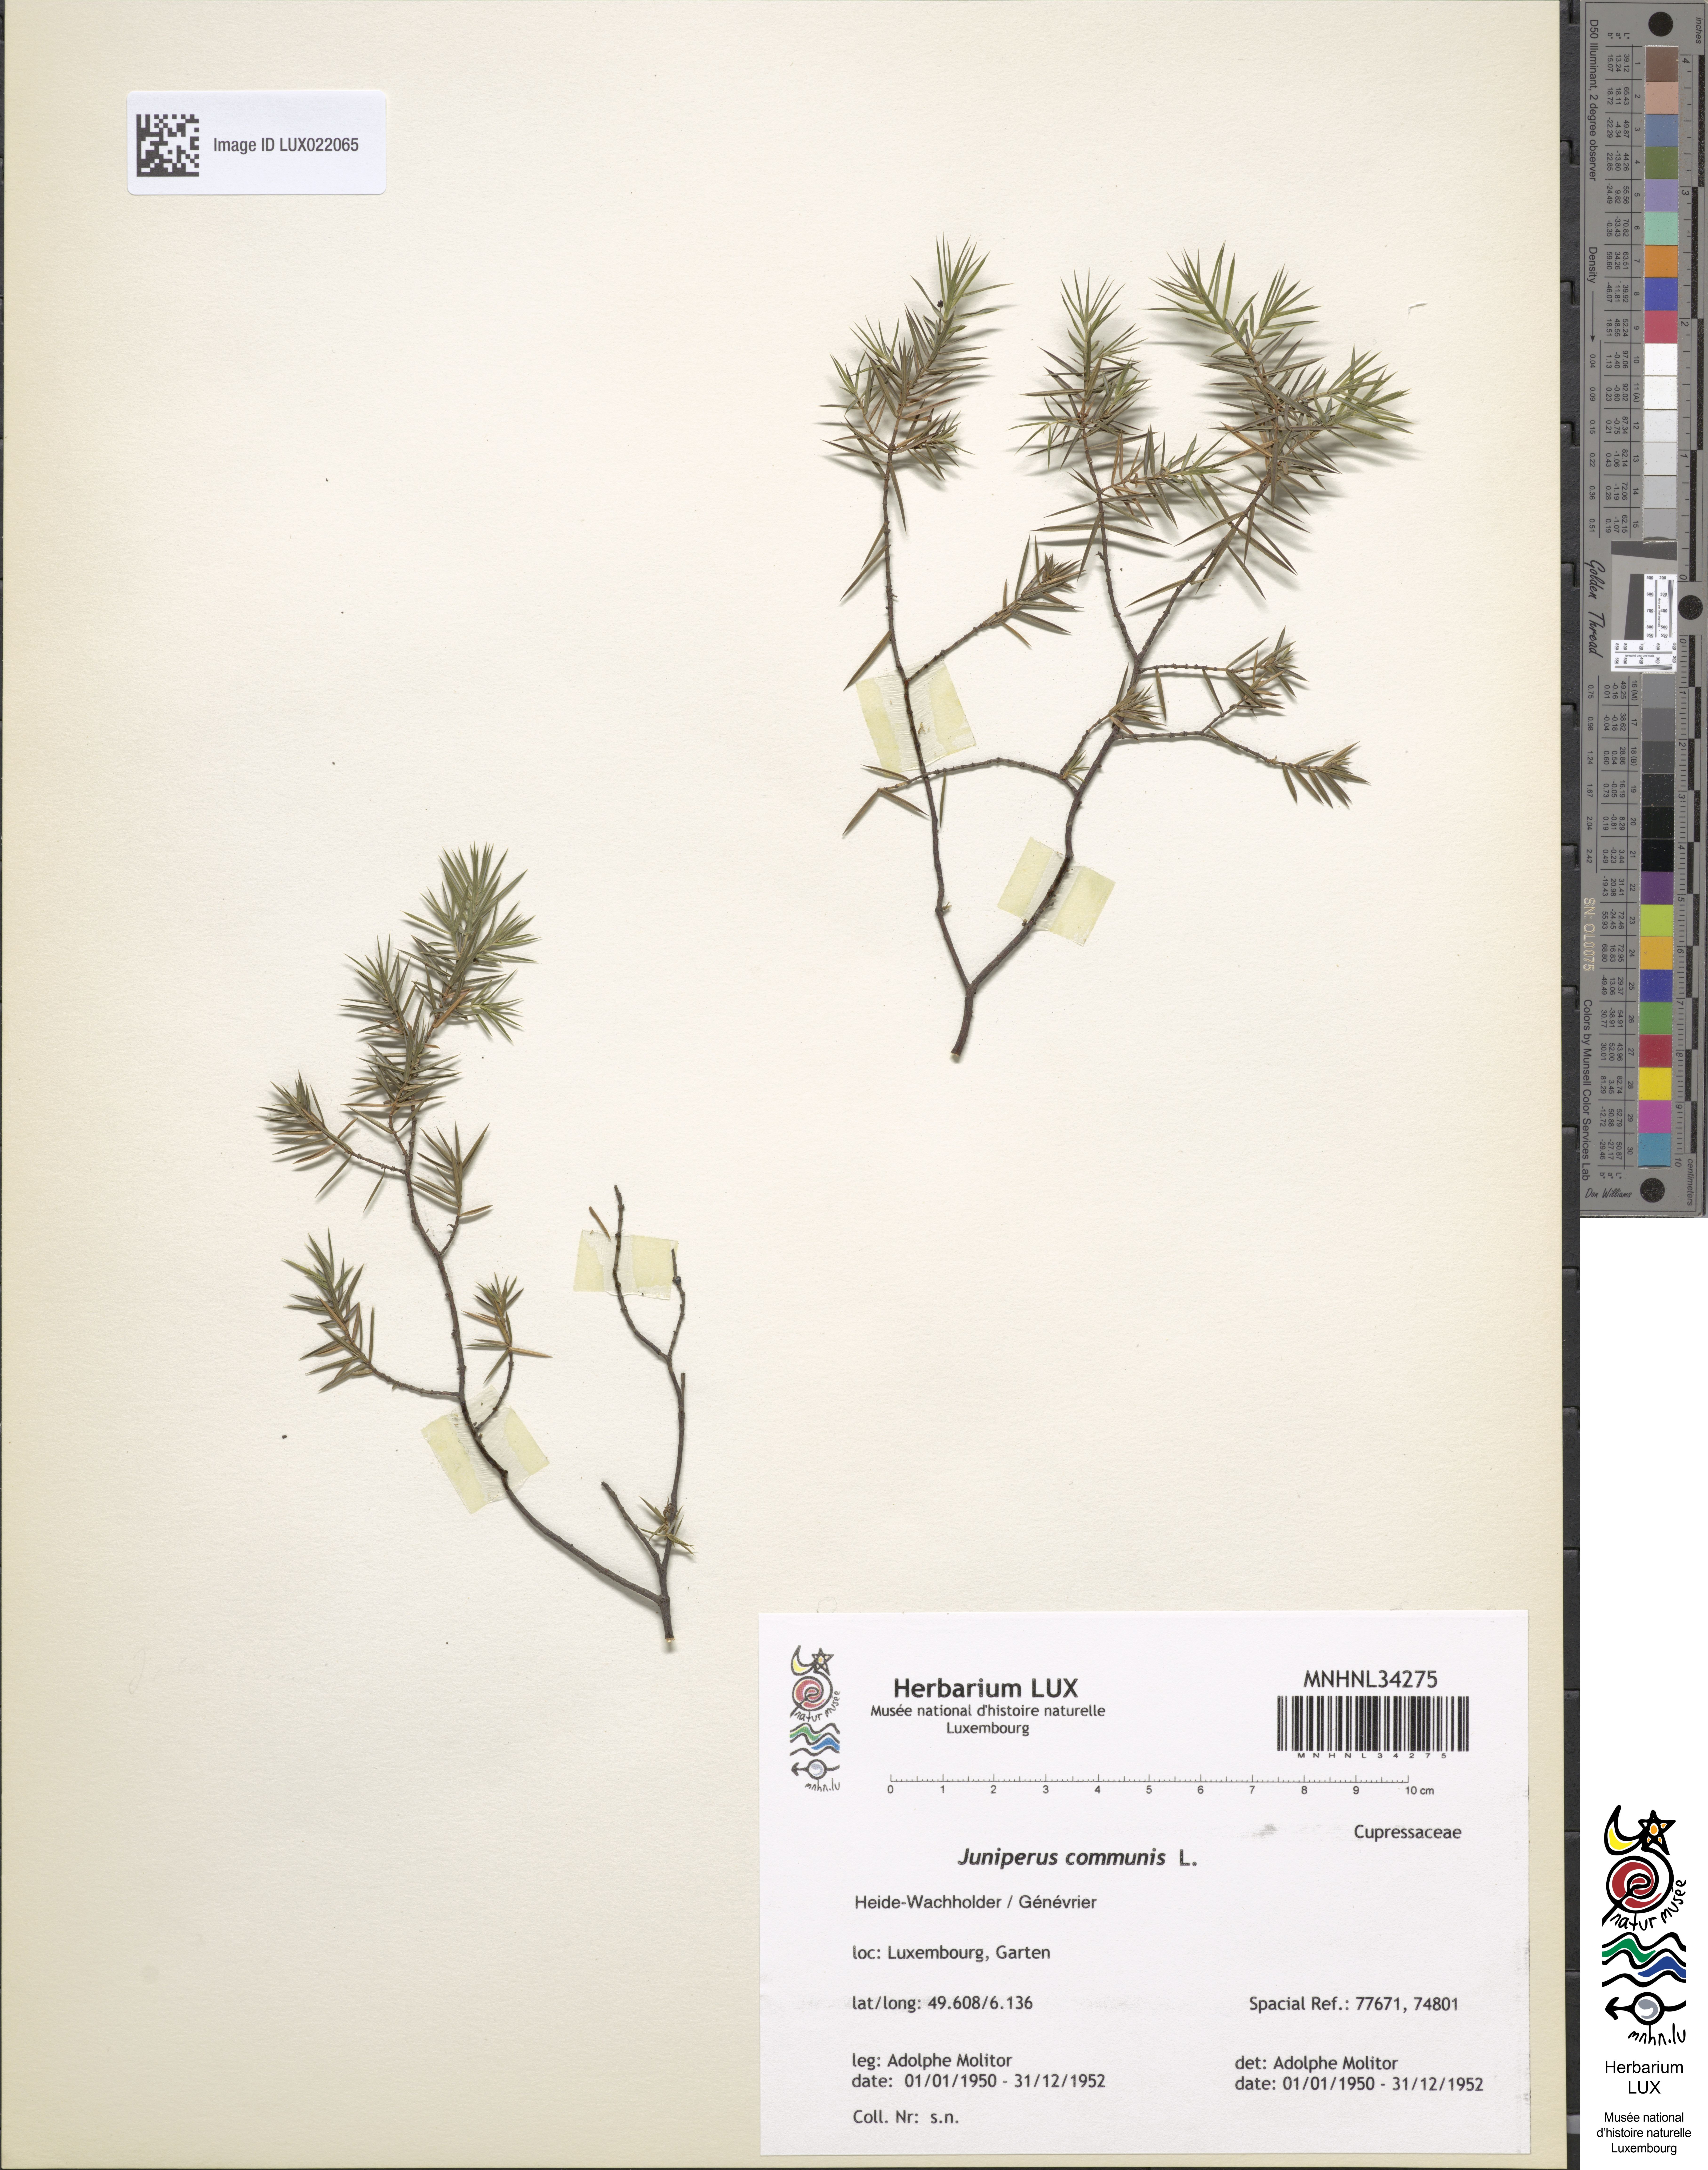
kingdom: Plantae
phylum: Tracheophyta
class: Pinopsida
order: Pinales
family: Cupressaceae
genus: Juniperus
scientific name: Juniperus communis
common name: Common juniper
